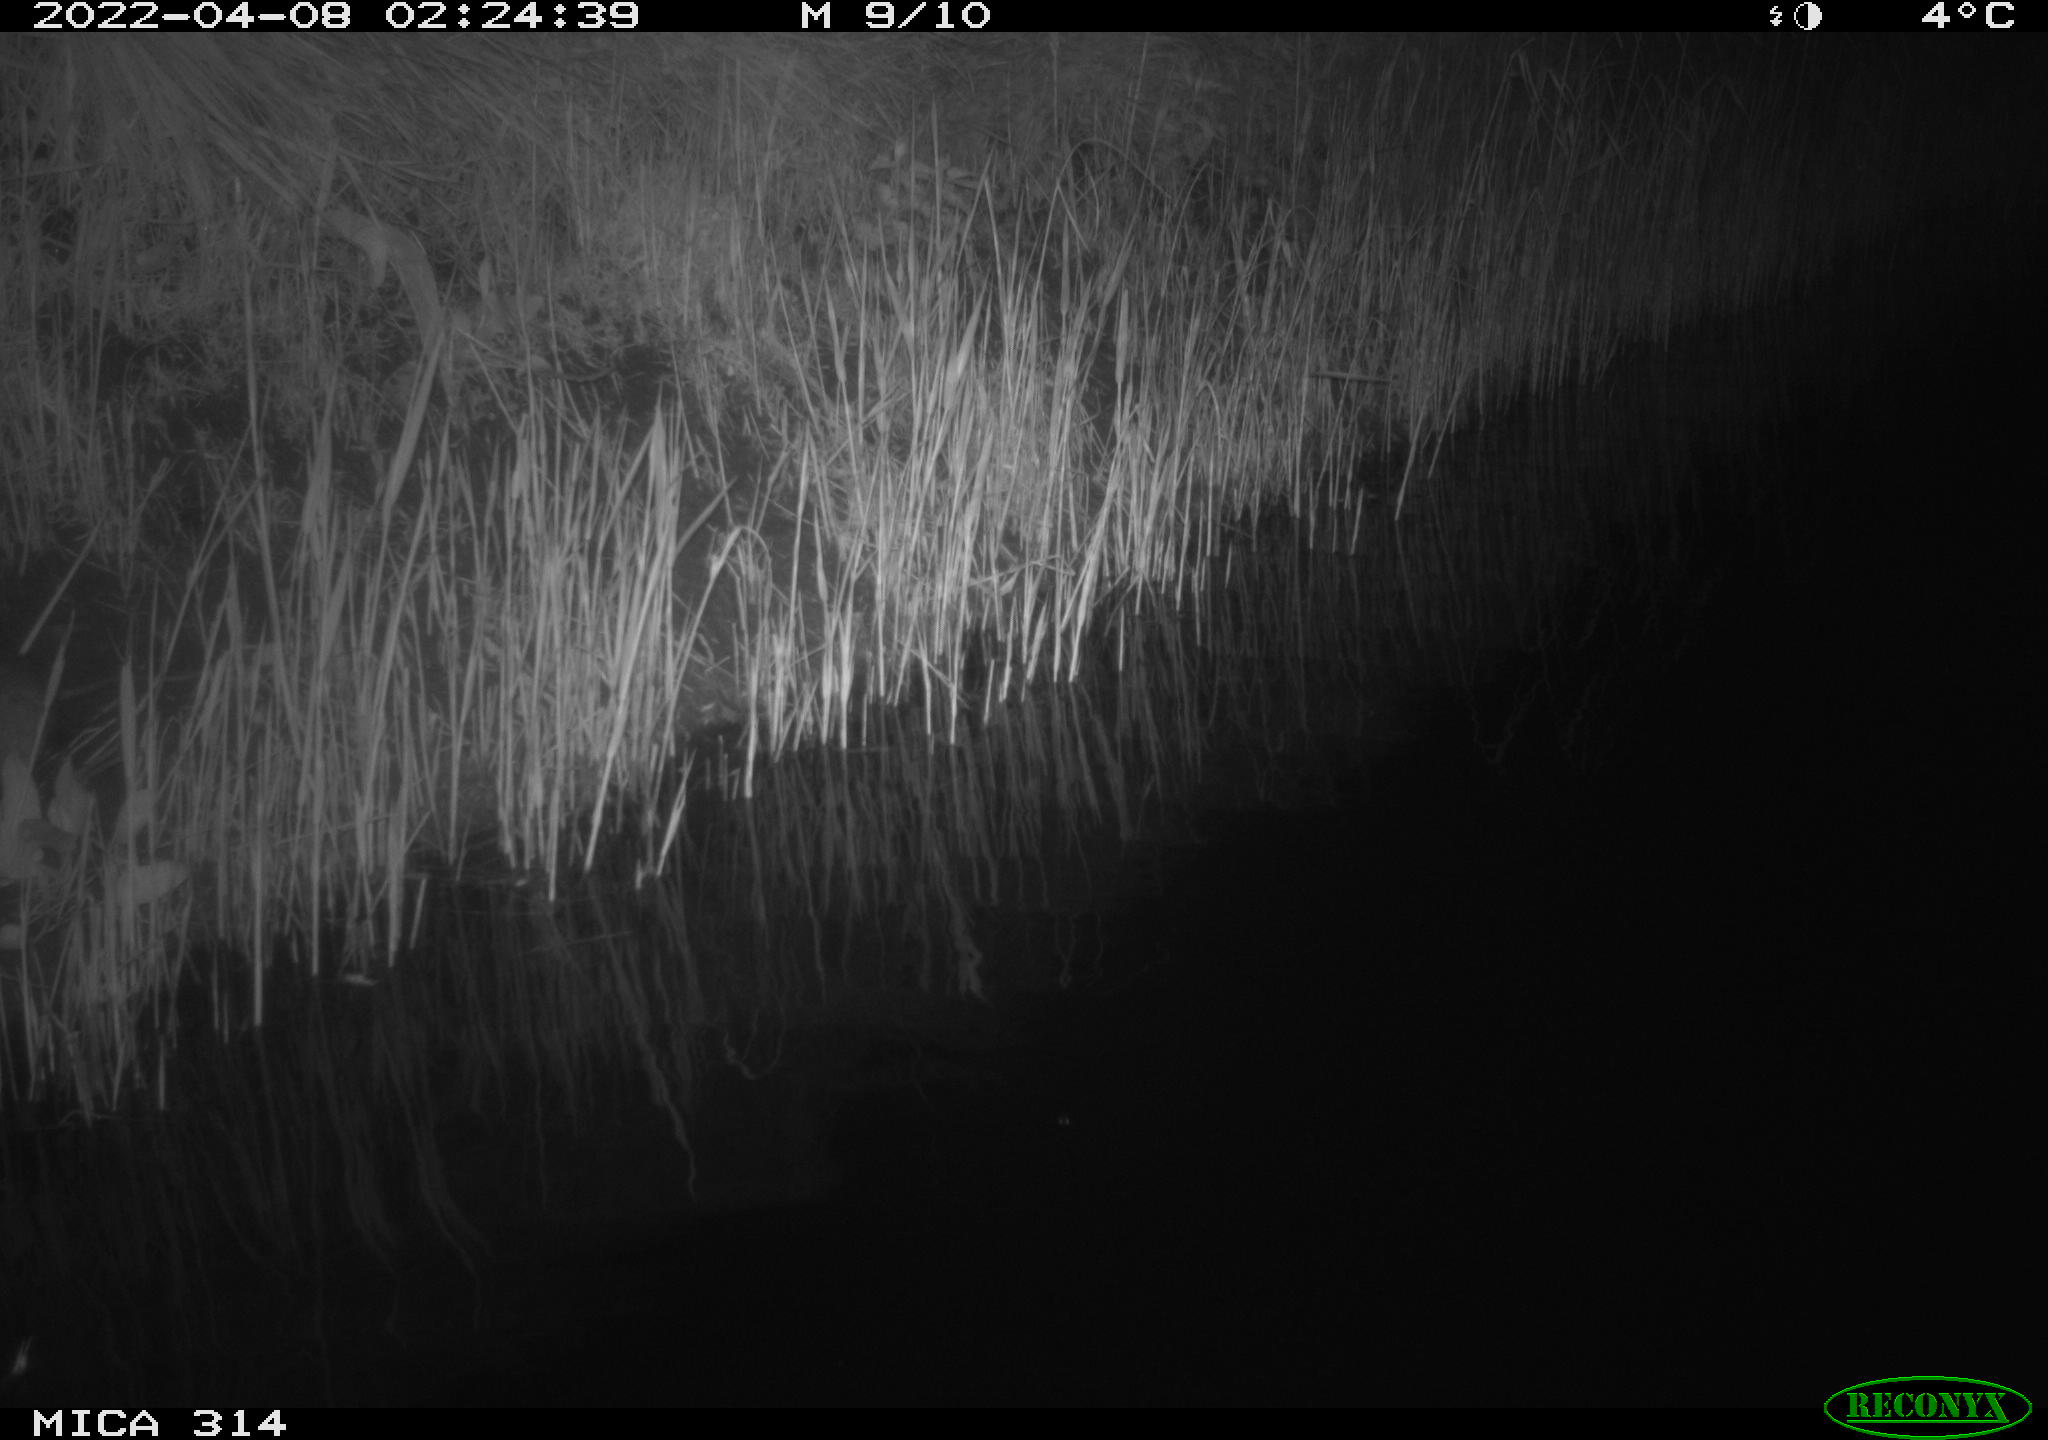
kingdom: Animalia
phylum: Chordata
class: Mammalia
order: Rodentia
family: Cricetidae
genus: Ondatra
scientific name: Ondatra zibethicus
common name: Muskrat
